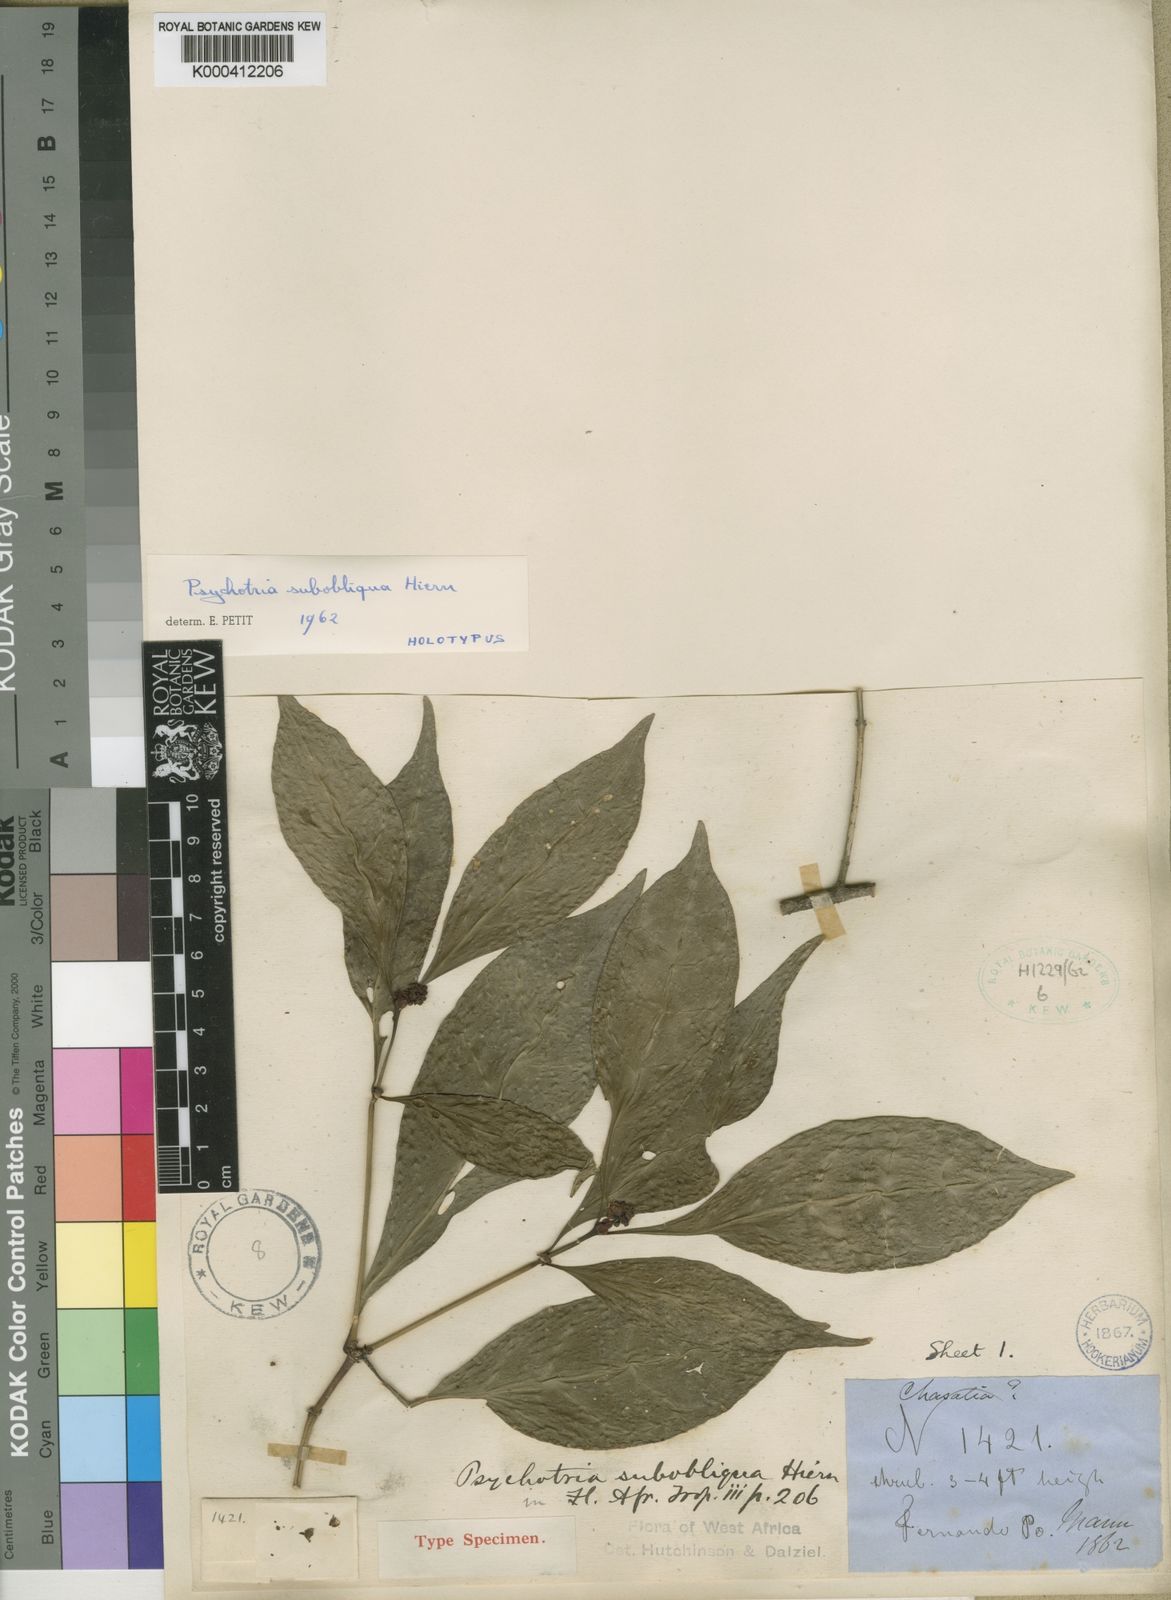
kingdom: Plantae
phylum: Tracheophyta
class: Magnoliopsida
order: Gentianales
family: Rubiaceae
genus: Psychotria
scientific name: Psychotria subobliqua
